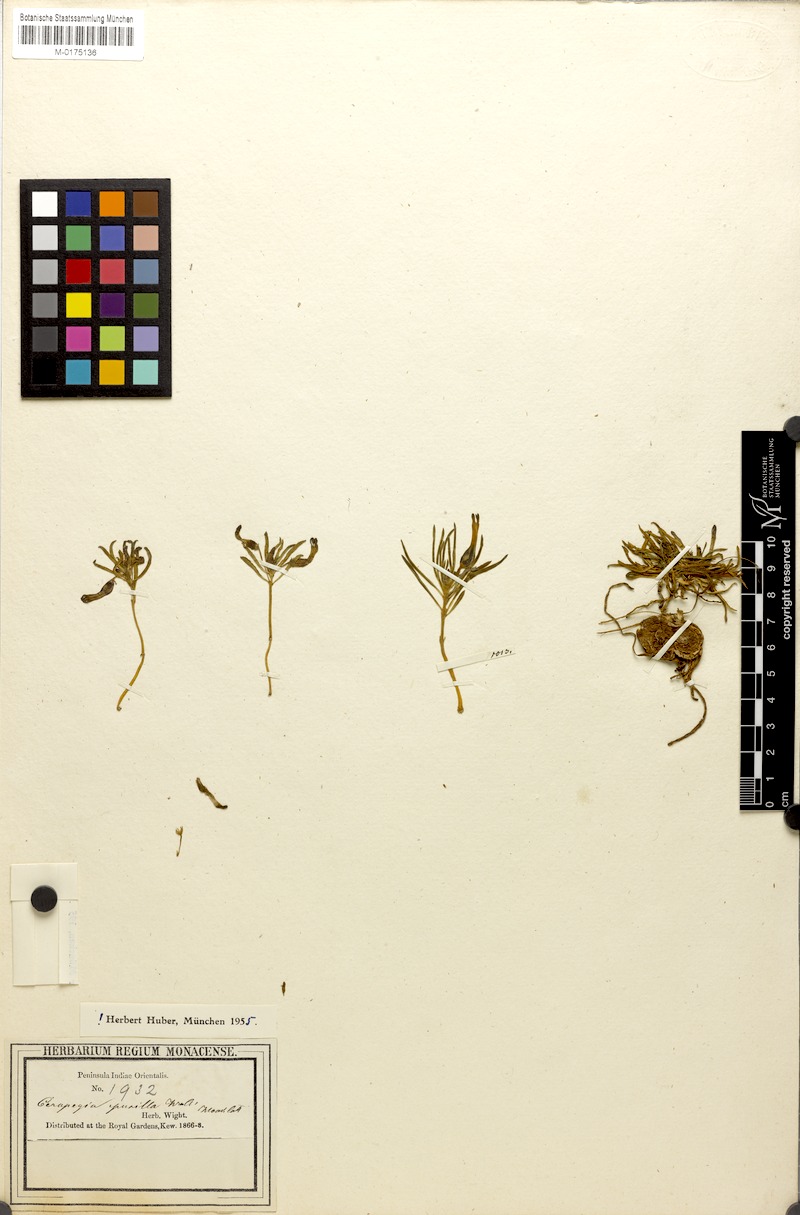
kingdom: Plantae
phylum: Tracheophyta
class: Magnoliopsida
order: Gentianales
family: Apocynaceae
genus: Ceropegia
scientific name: Ceropegia pusilla
